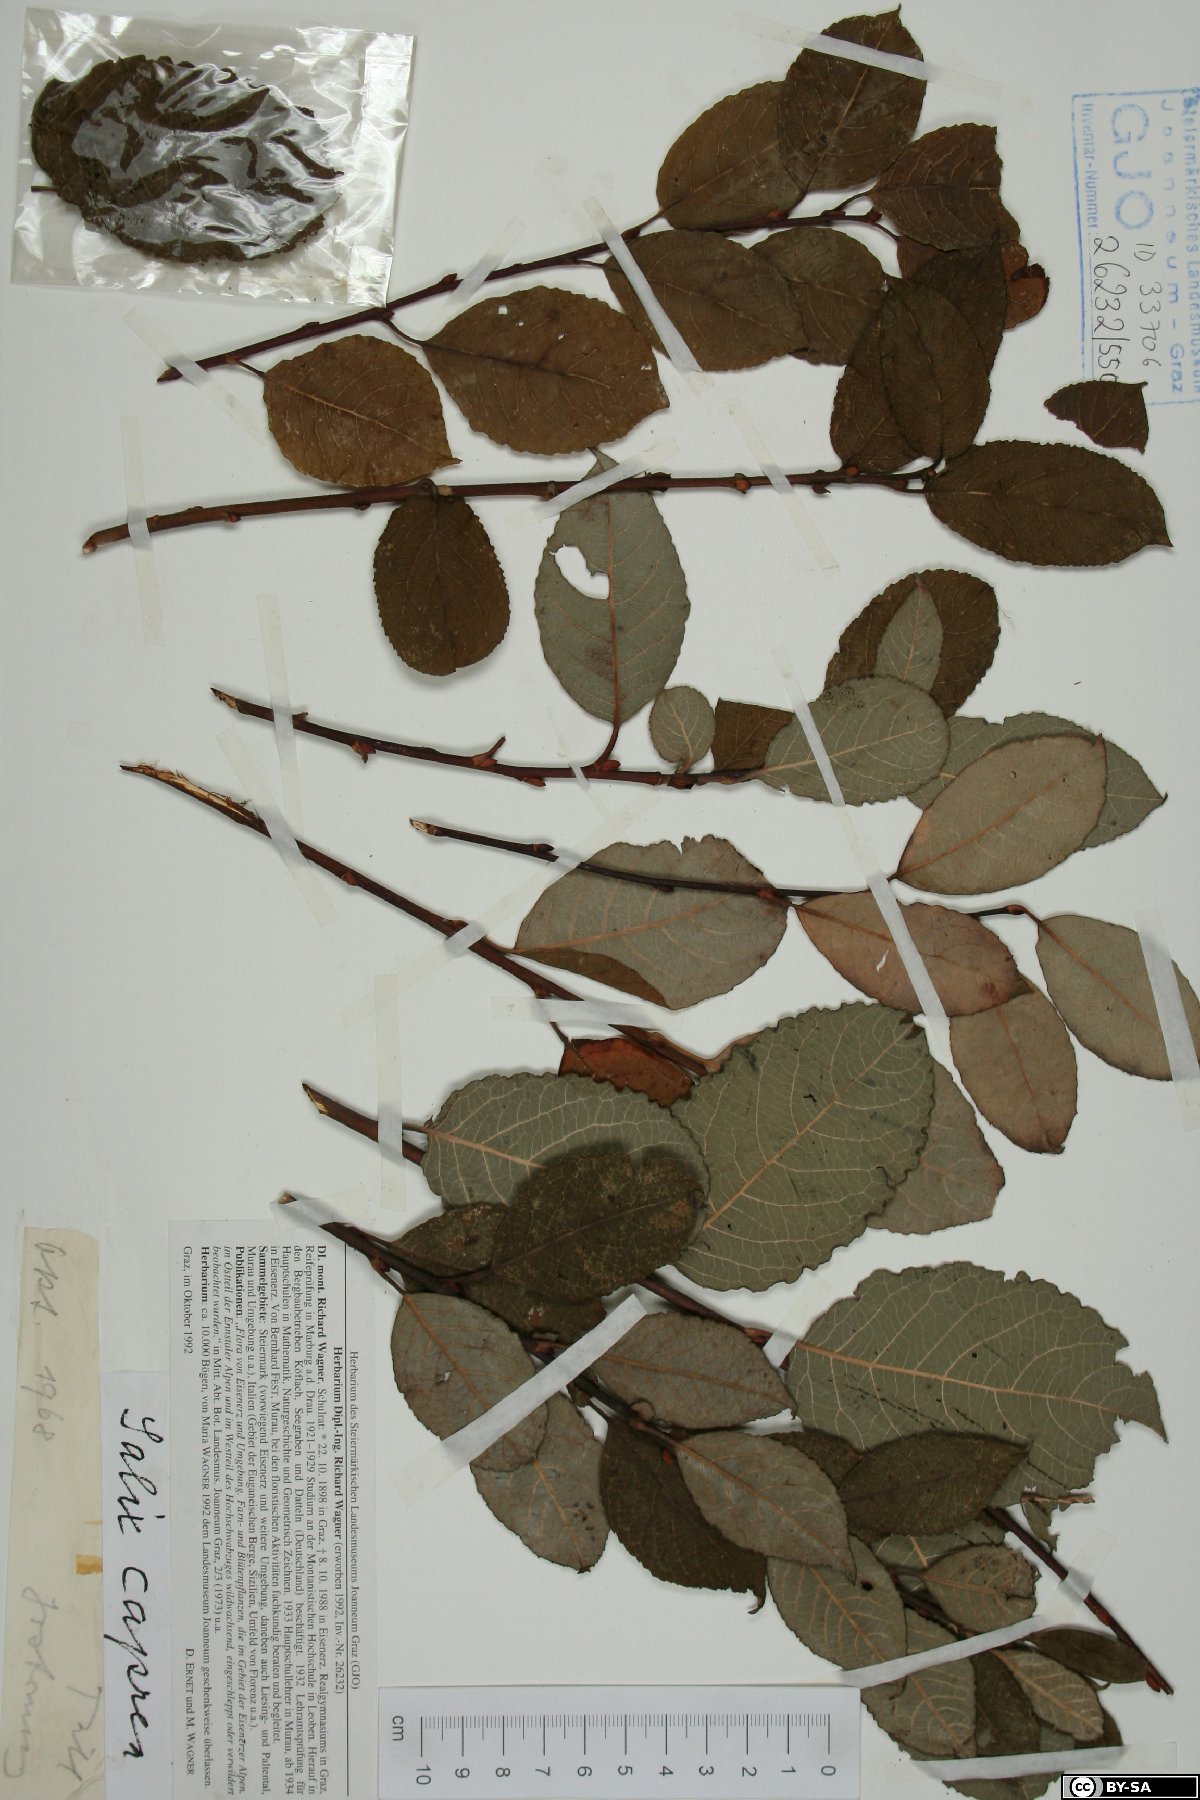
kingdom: Plantae
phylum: Tracheophyta
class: Magnoliopsida
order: Malpighiales
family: Salicaceae
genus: Salix
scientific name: Salix caprea
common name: Goat willow
